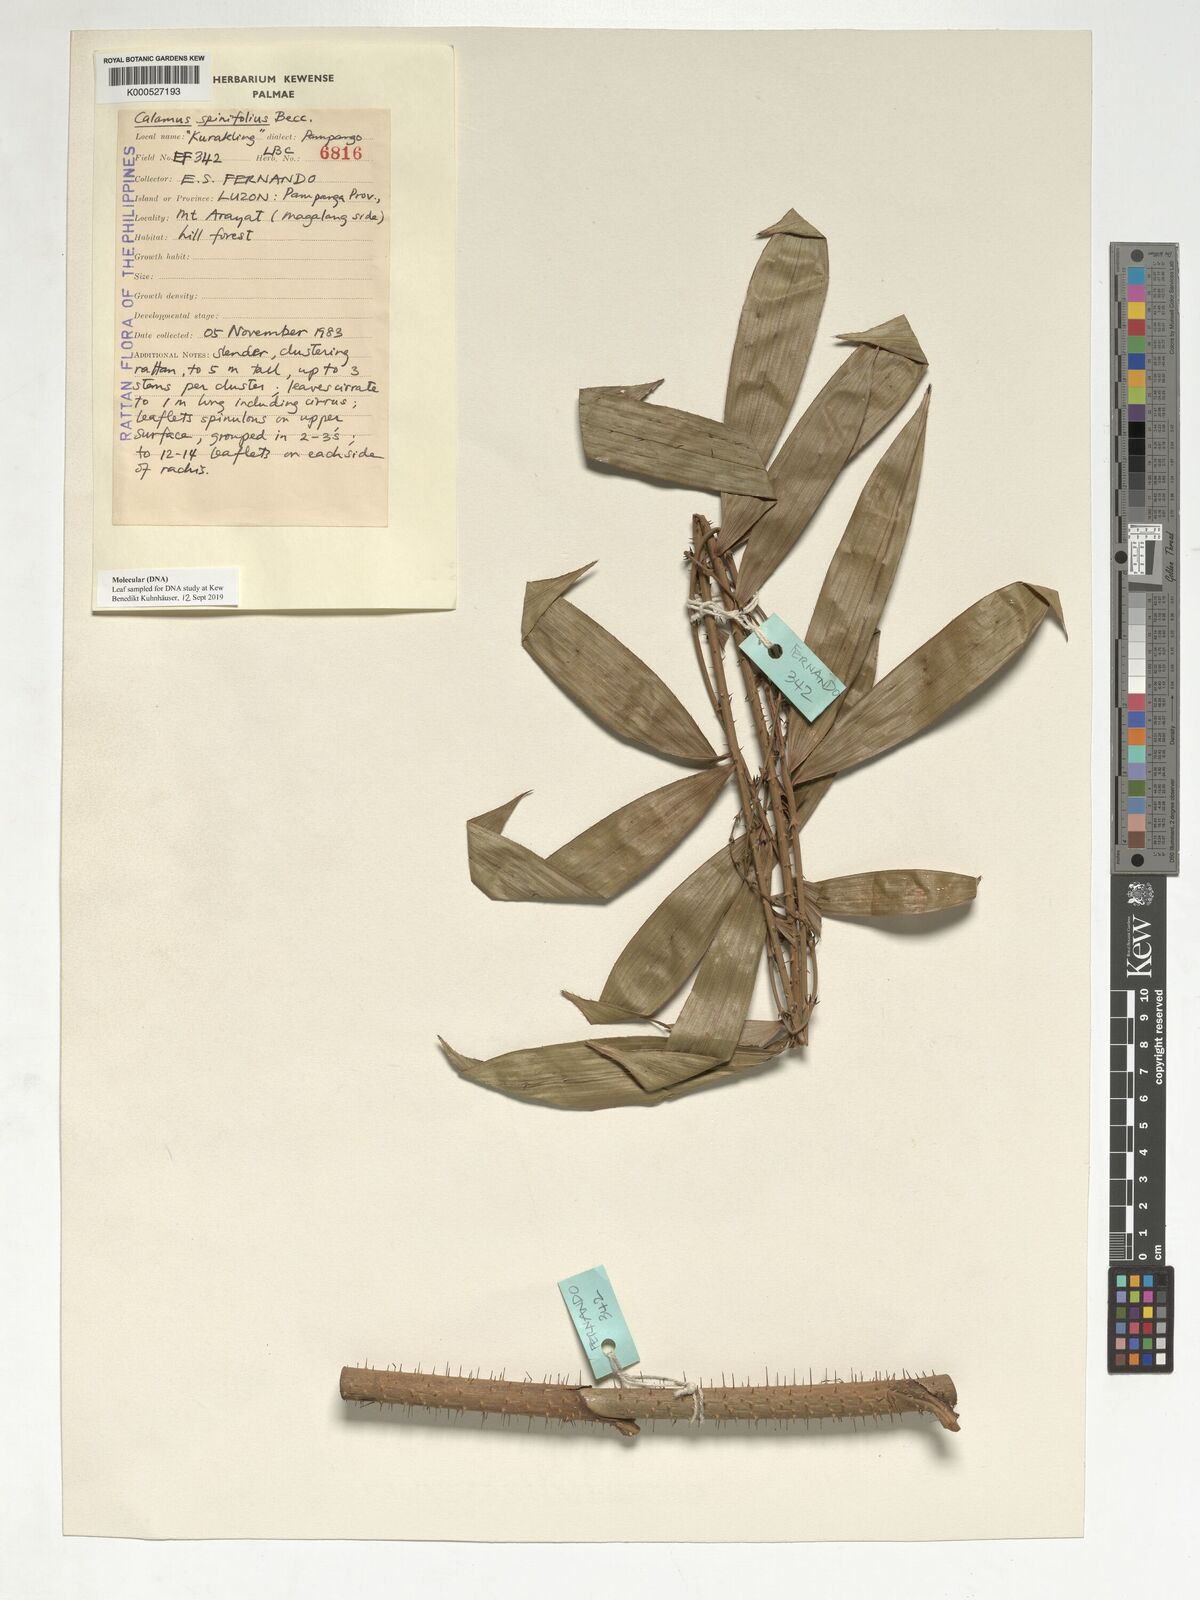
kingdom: Plantae
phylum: Tracheophyta
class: Liliopsida
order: Arecales
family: Arecaceae
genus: Calamus
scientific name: Calamus moseleyanus
